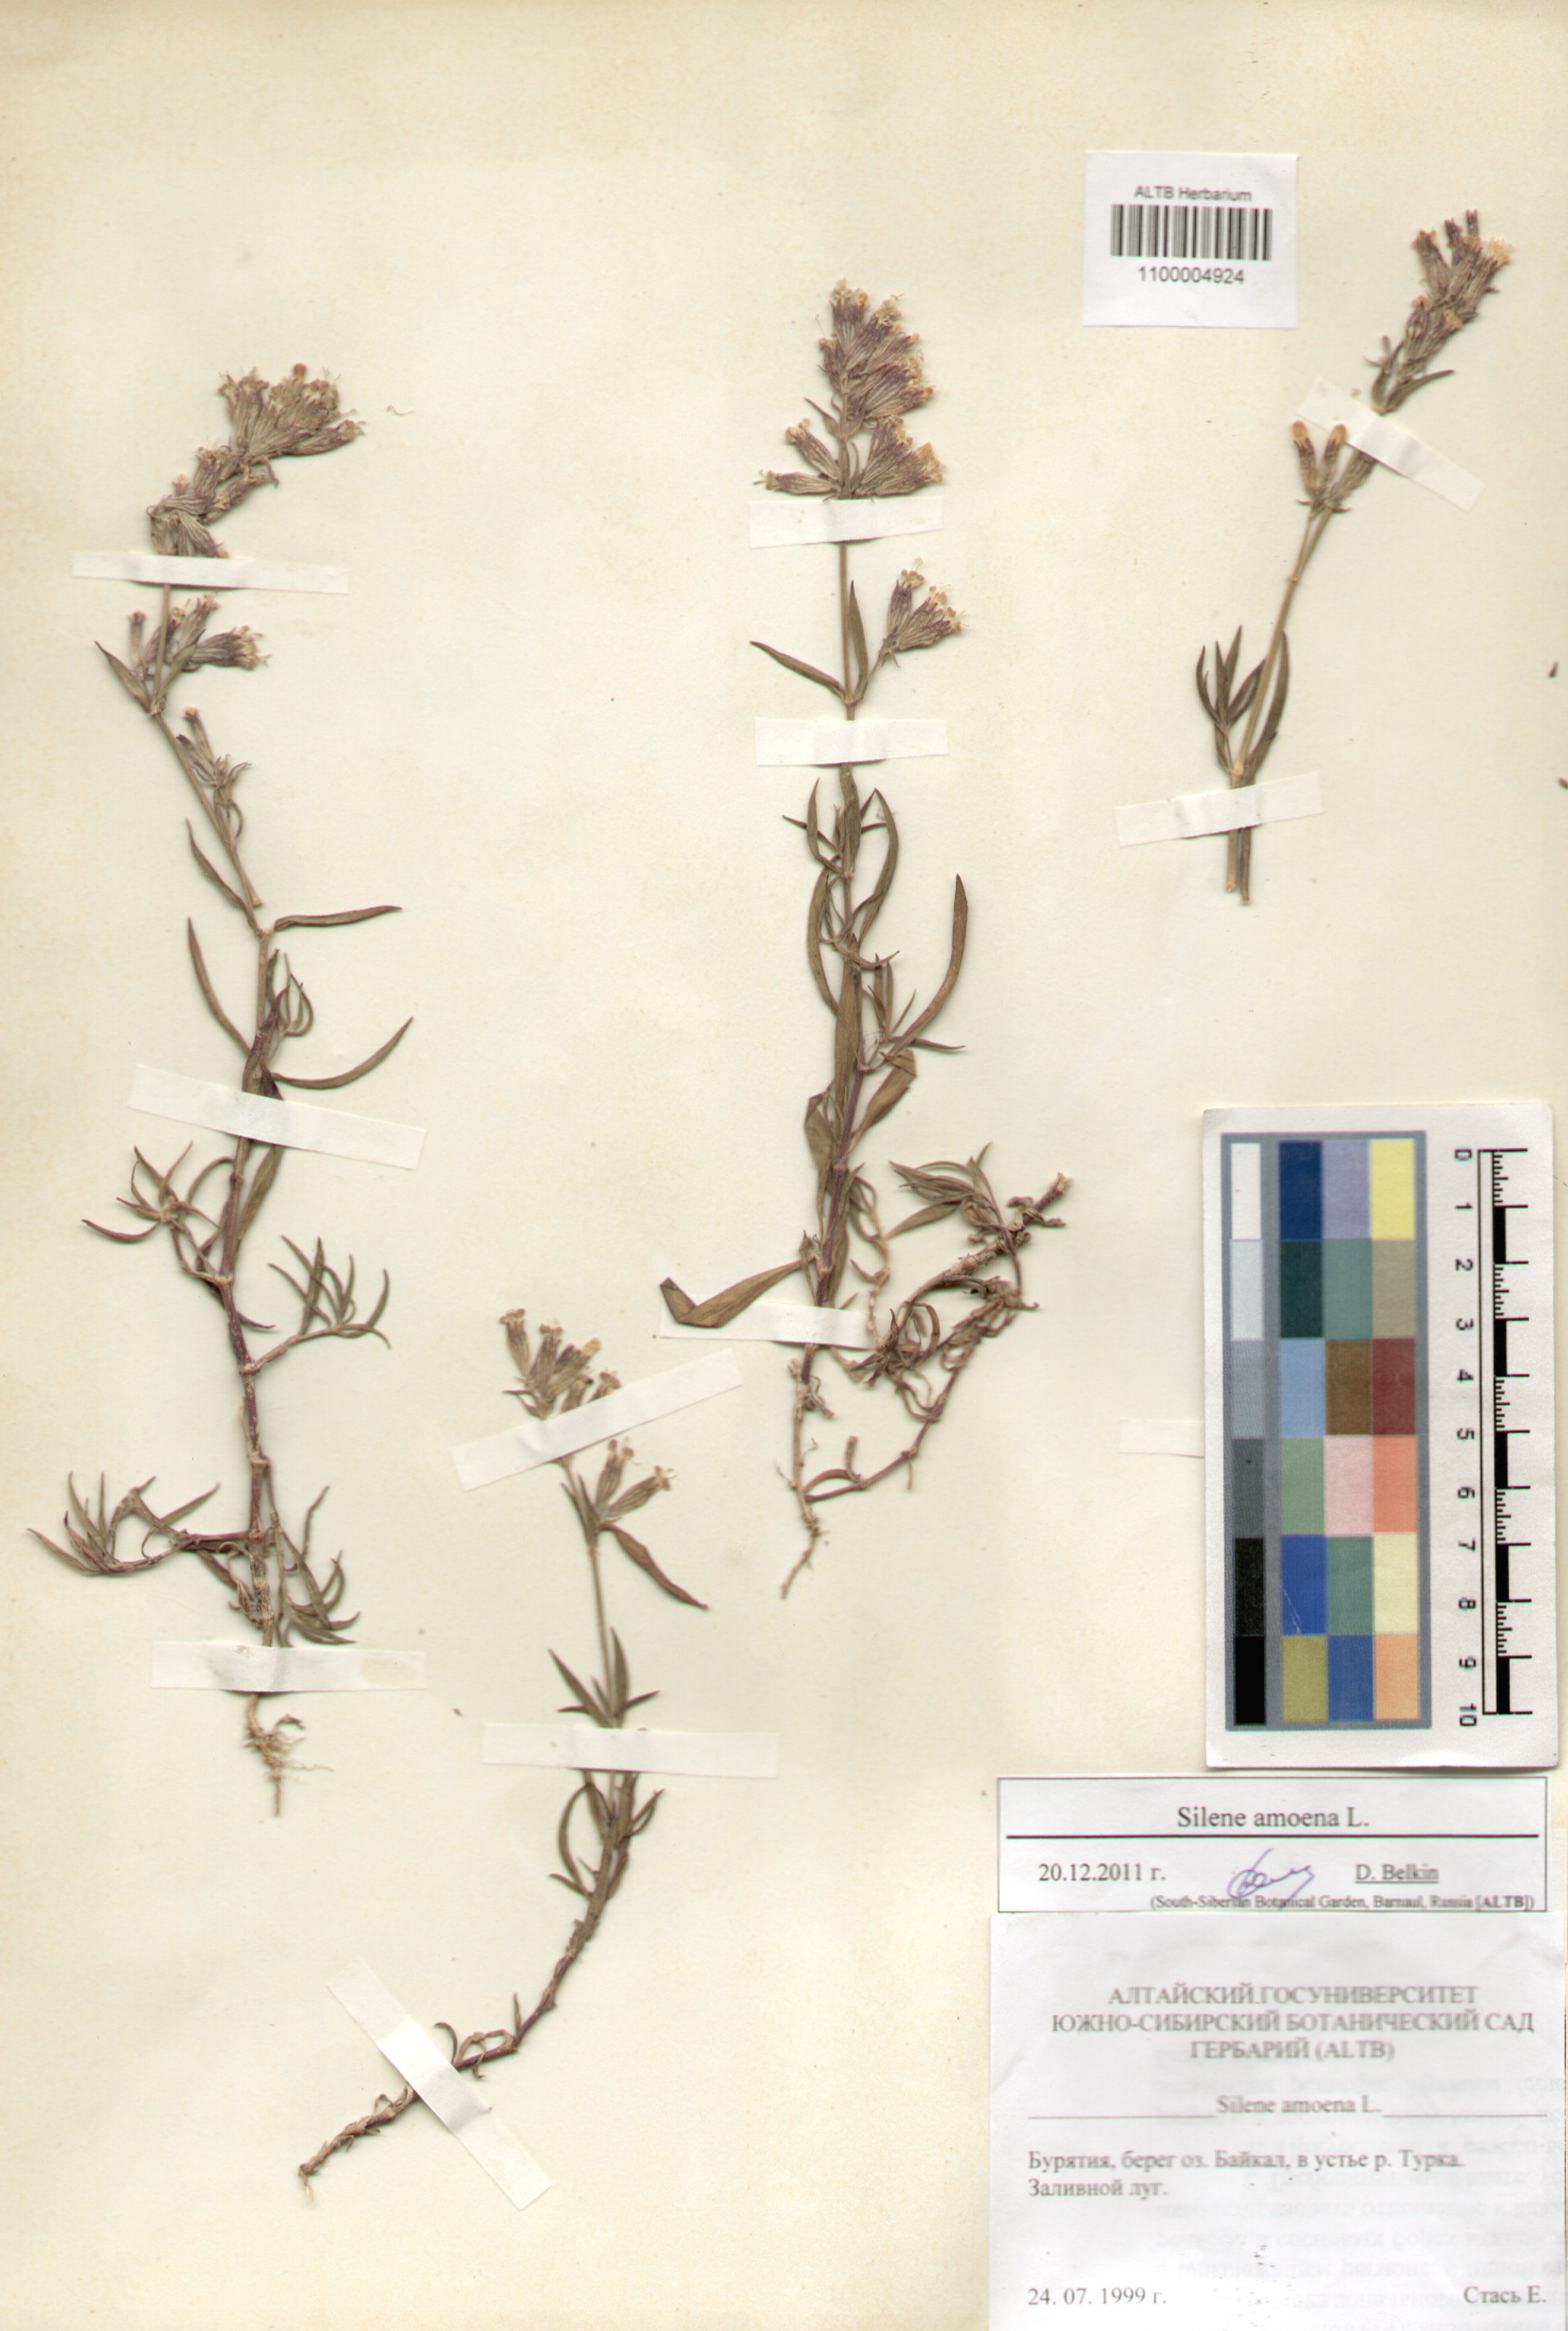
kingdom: Plantae
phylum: Tracheophyta
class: Magnoliopsida
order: Caryophyllales
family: Caryophyllaceae
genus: Silene
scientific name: Silene amoena
